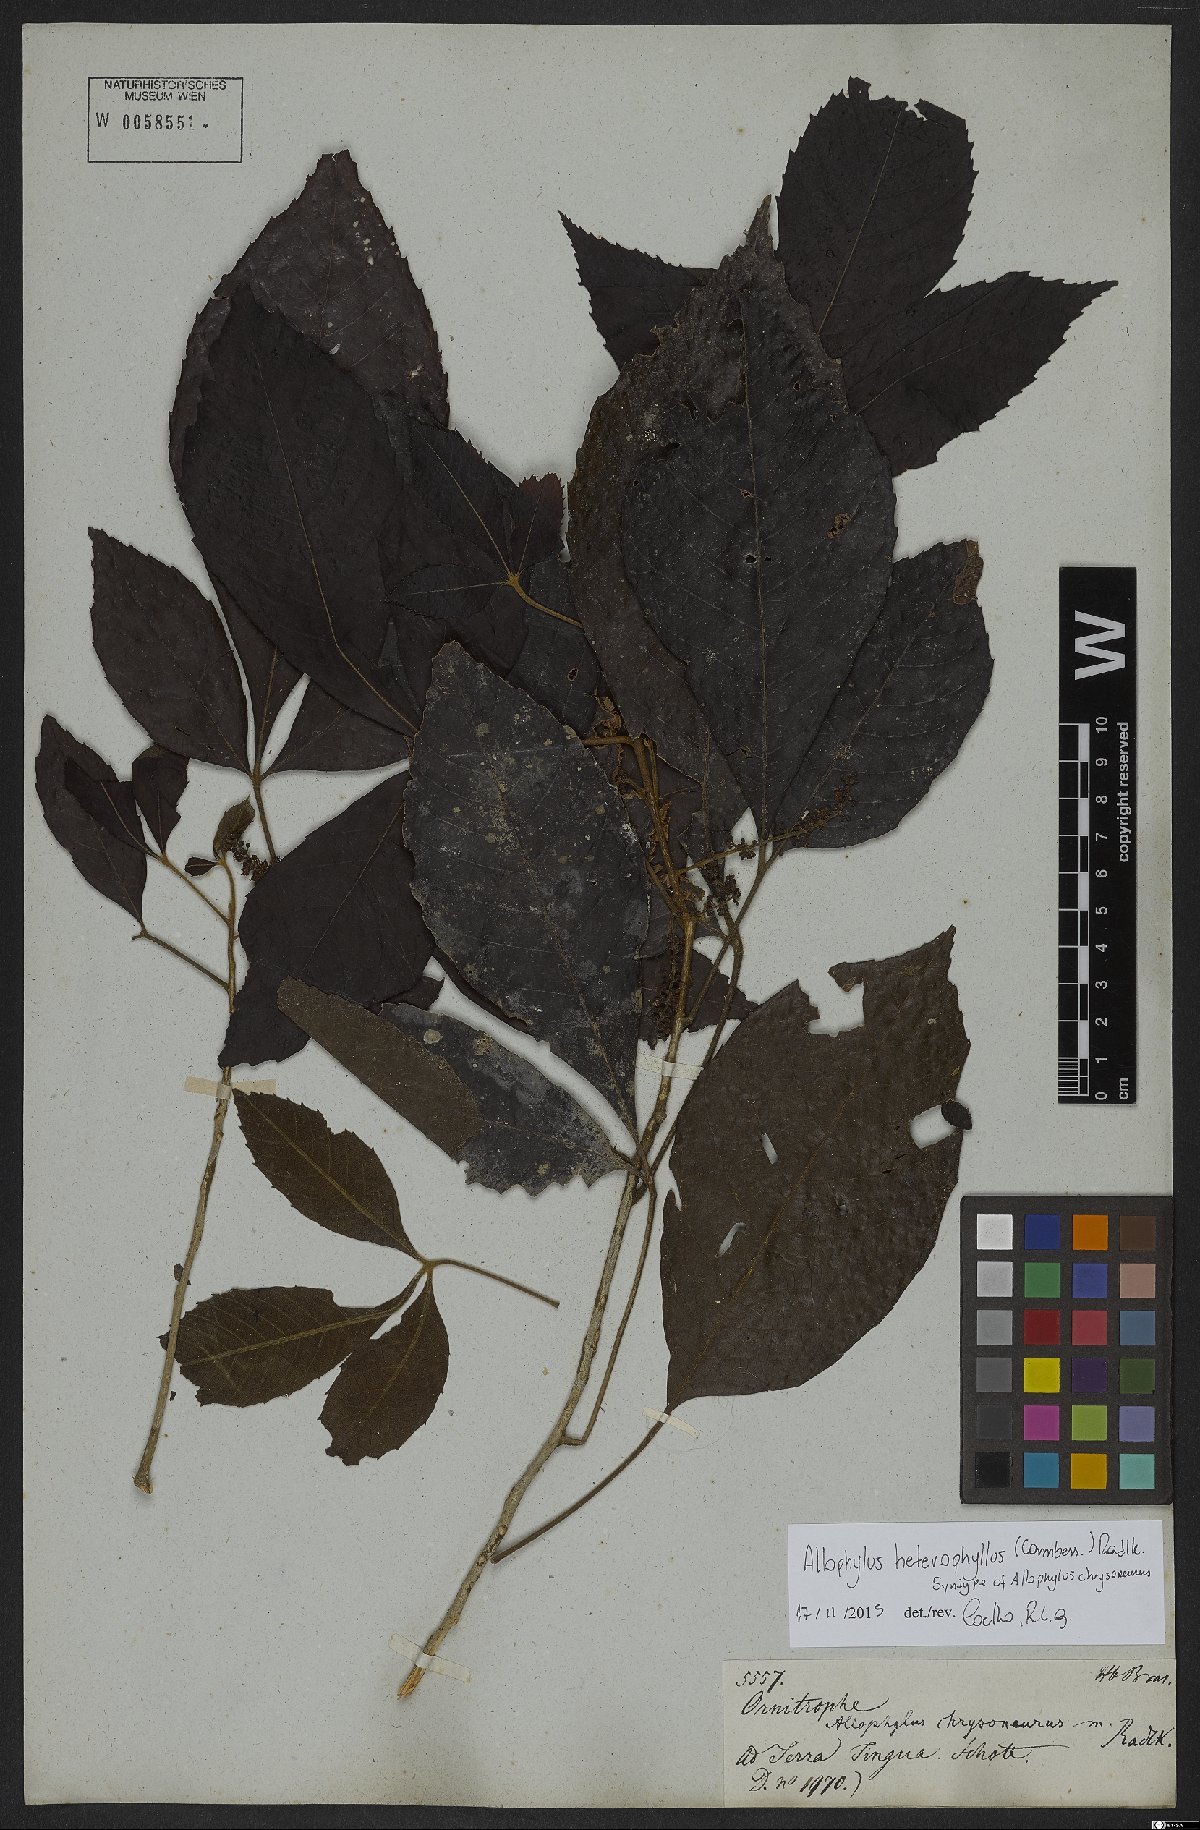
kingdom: Plantae
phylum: Tracheophyta
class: Magnoliopsida
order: Sapindales
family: Sapindaceae
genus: Allophylus
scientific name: Allophylus heterophyllus
